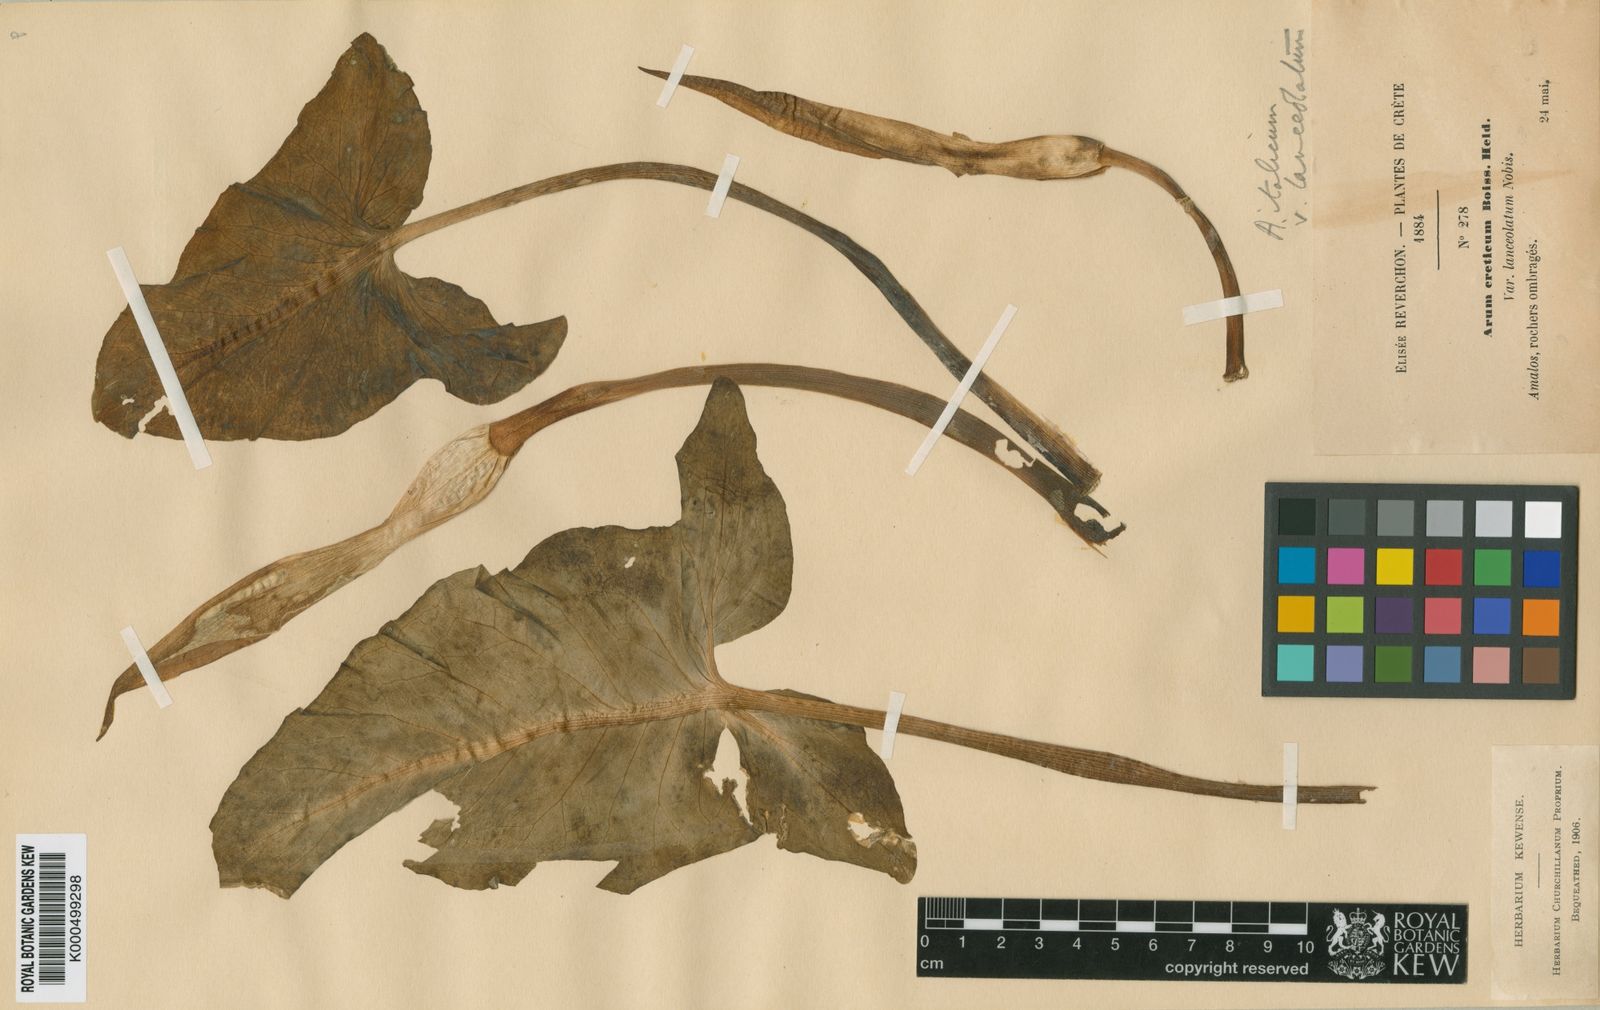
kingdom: Plantae
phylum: Tracheophyta
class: Liliopsida
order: Alismatales
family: Araceae
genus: Arum
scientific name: Arum cylindraceum
